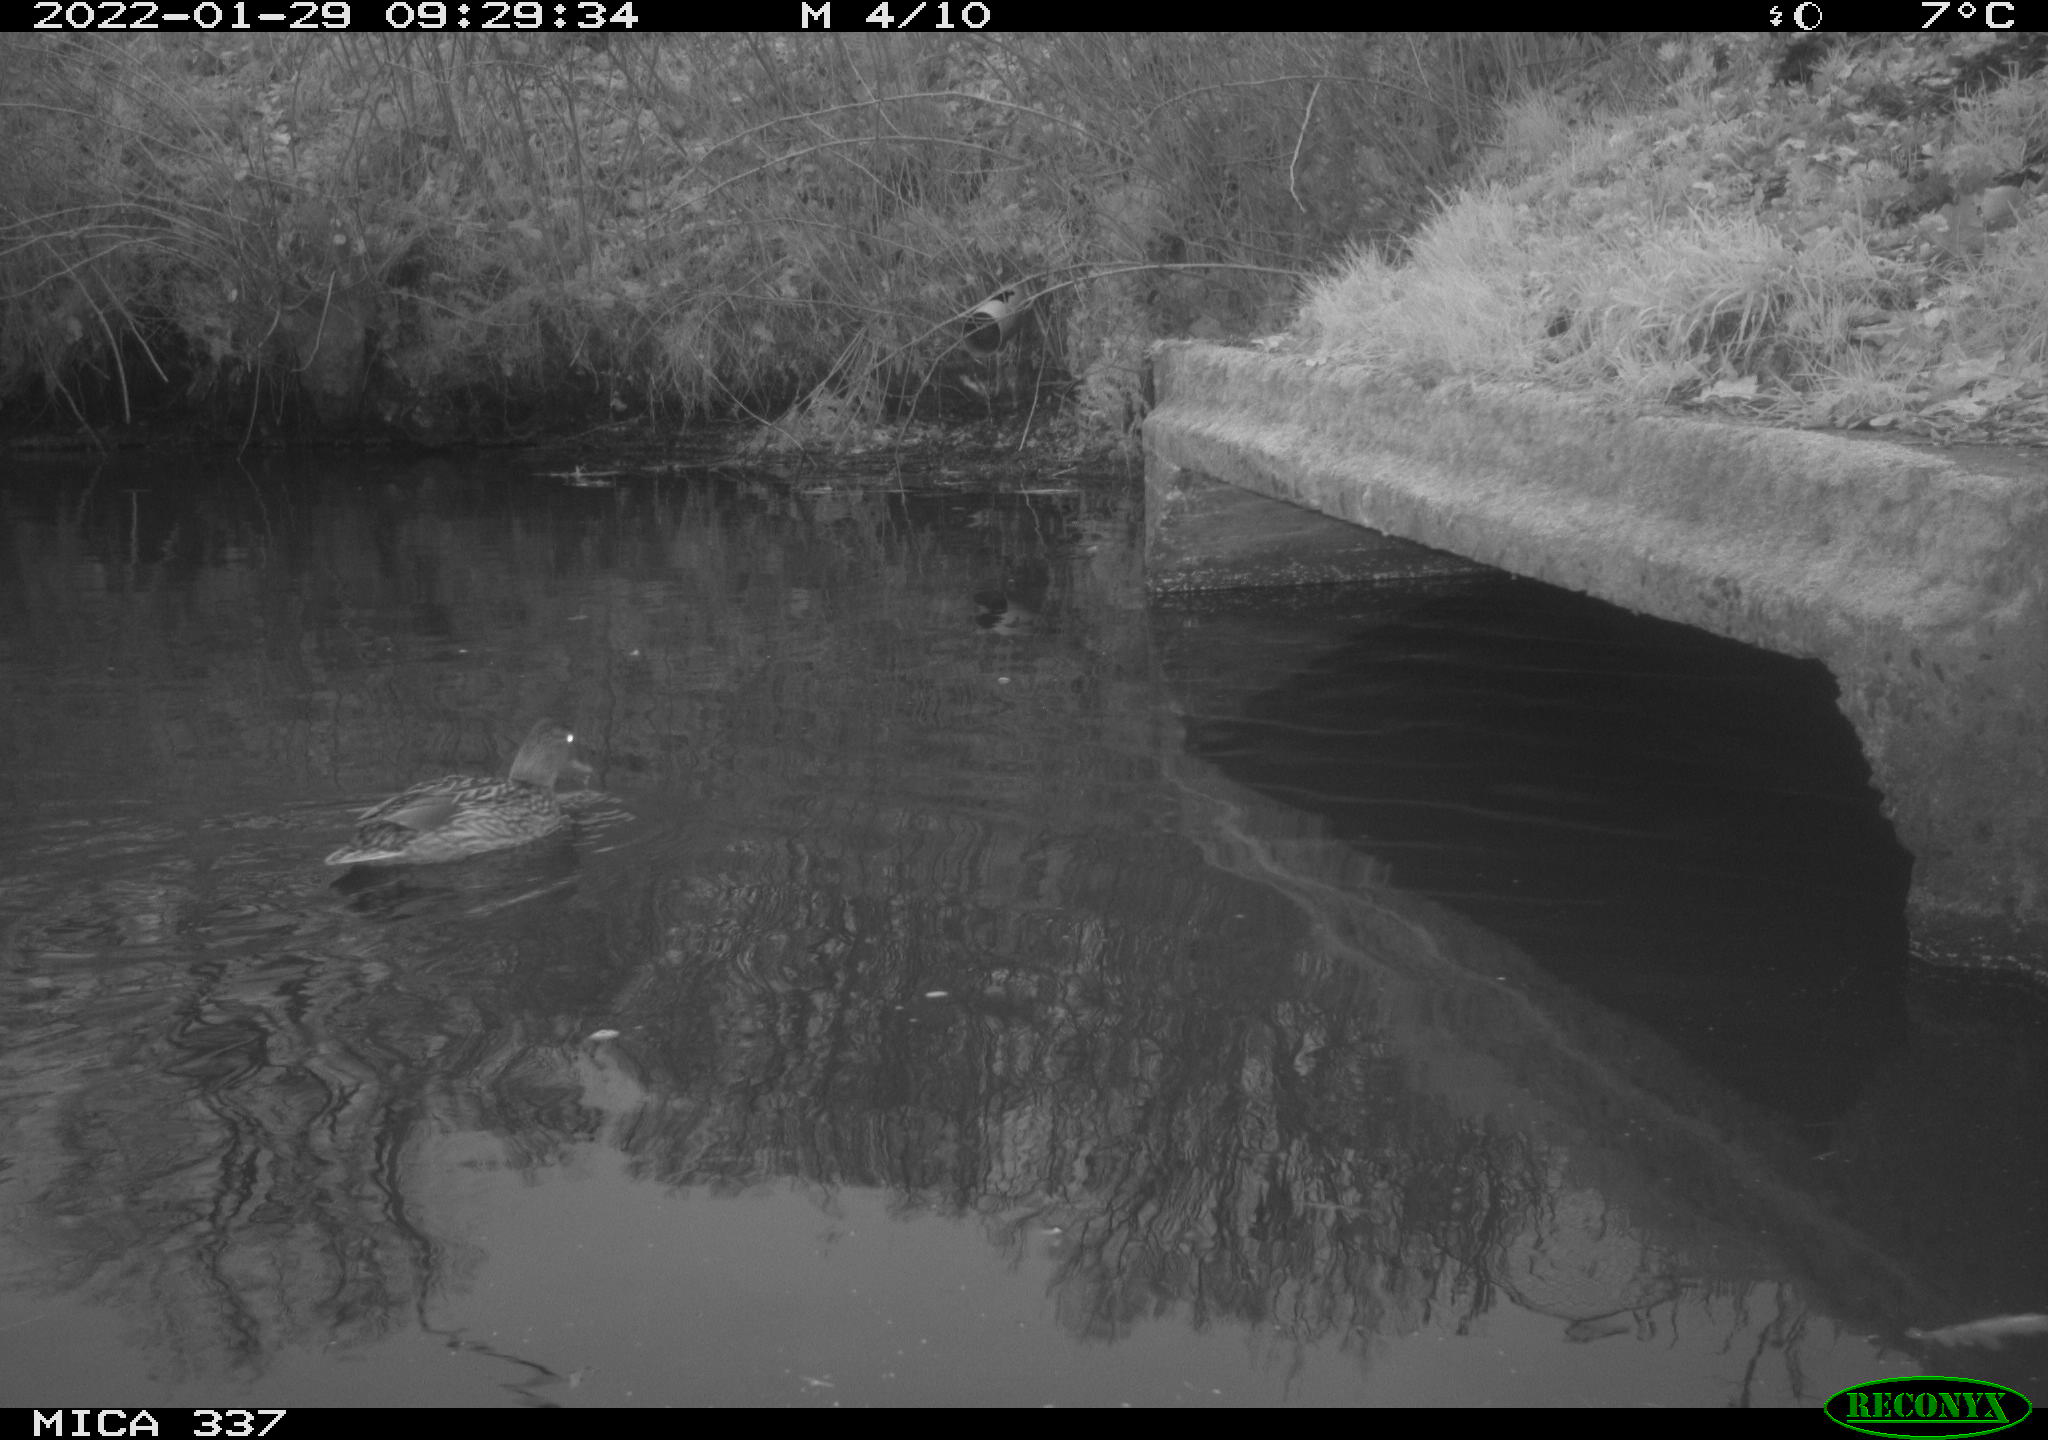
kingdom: Animalia
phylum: Chordata
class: Aves
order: Anseriformes
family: Anatidae
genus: Anas
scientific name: Anas platyrhynchos
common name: Mallard
